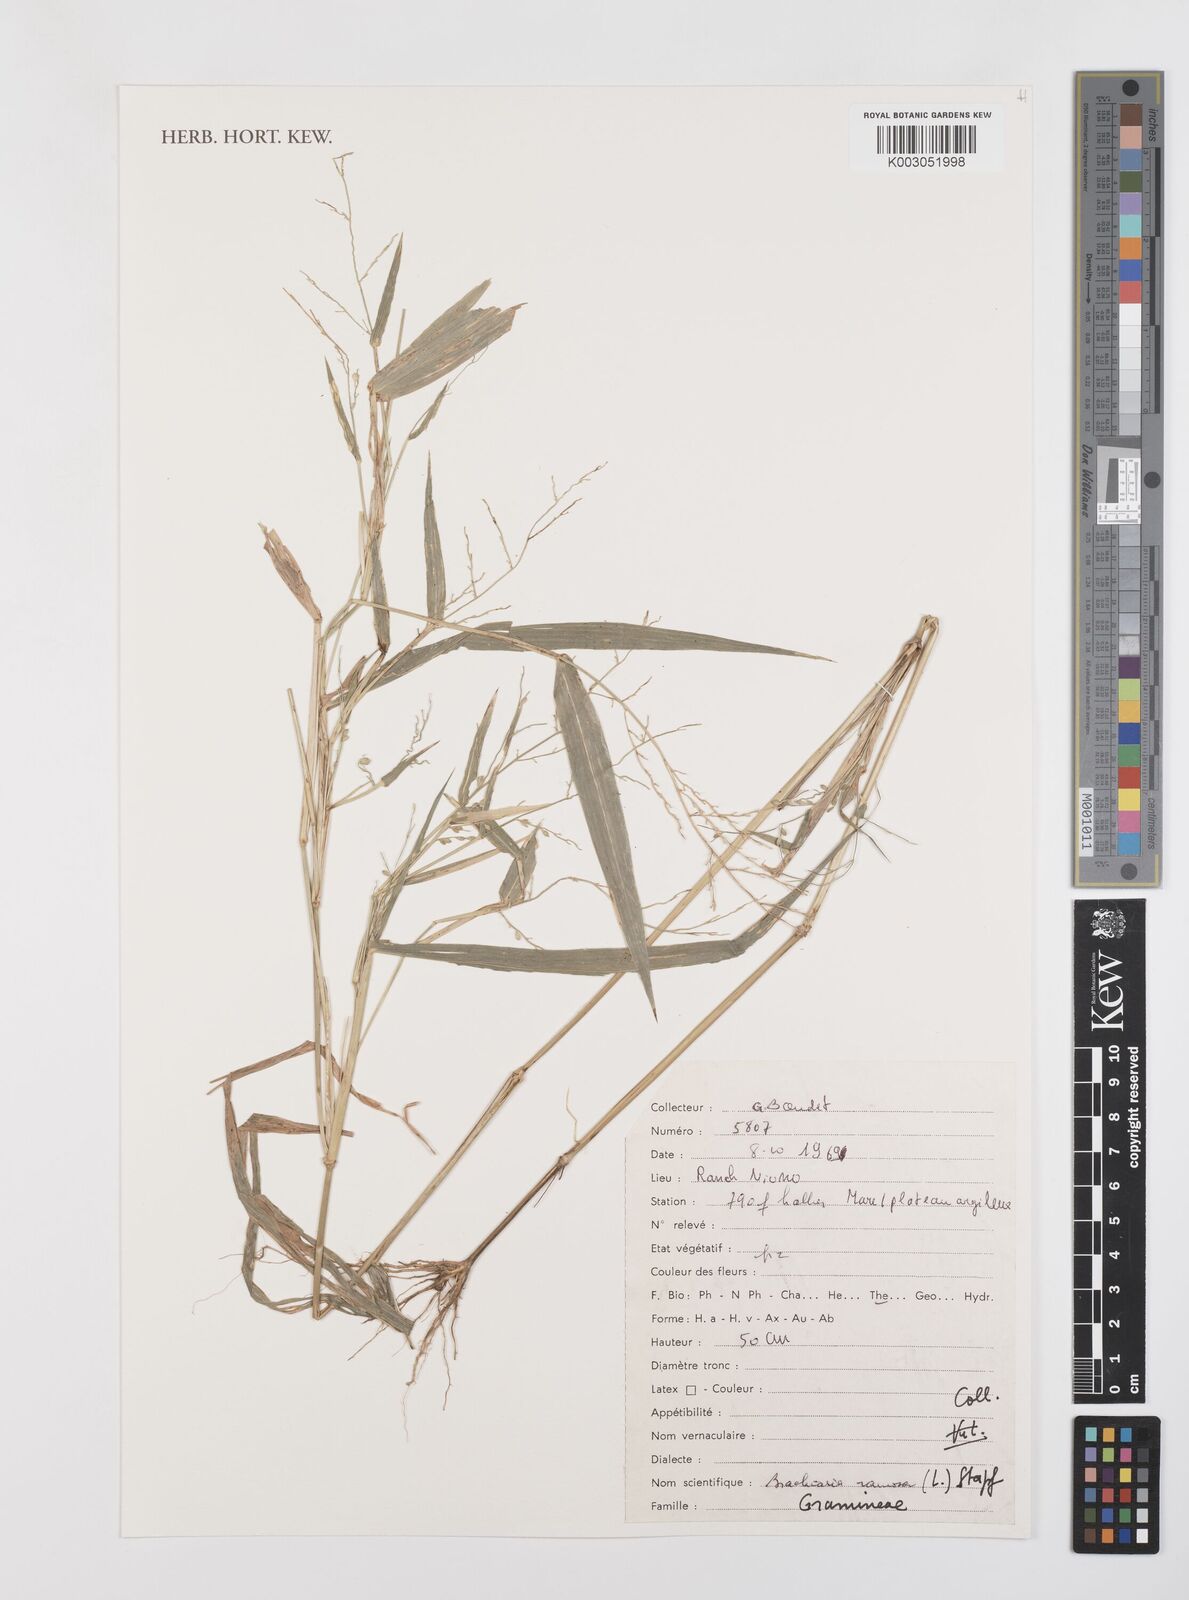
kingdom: Plantae
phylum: Tracheophyta
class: Liliopsida
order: Poales
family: Poaceae
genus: Urochloa
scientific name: Urochloa ramosa
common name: Browntop millet
